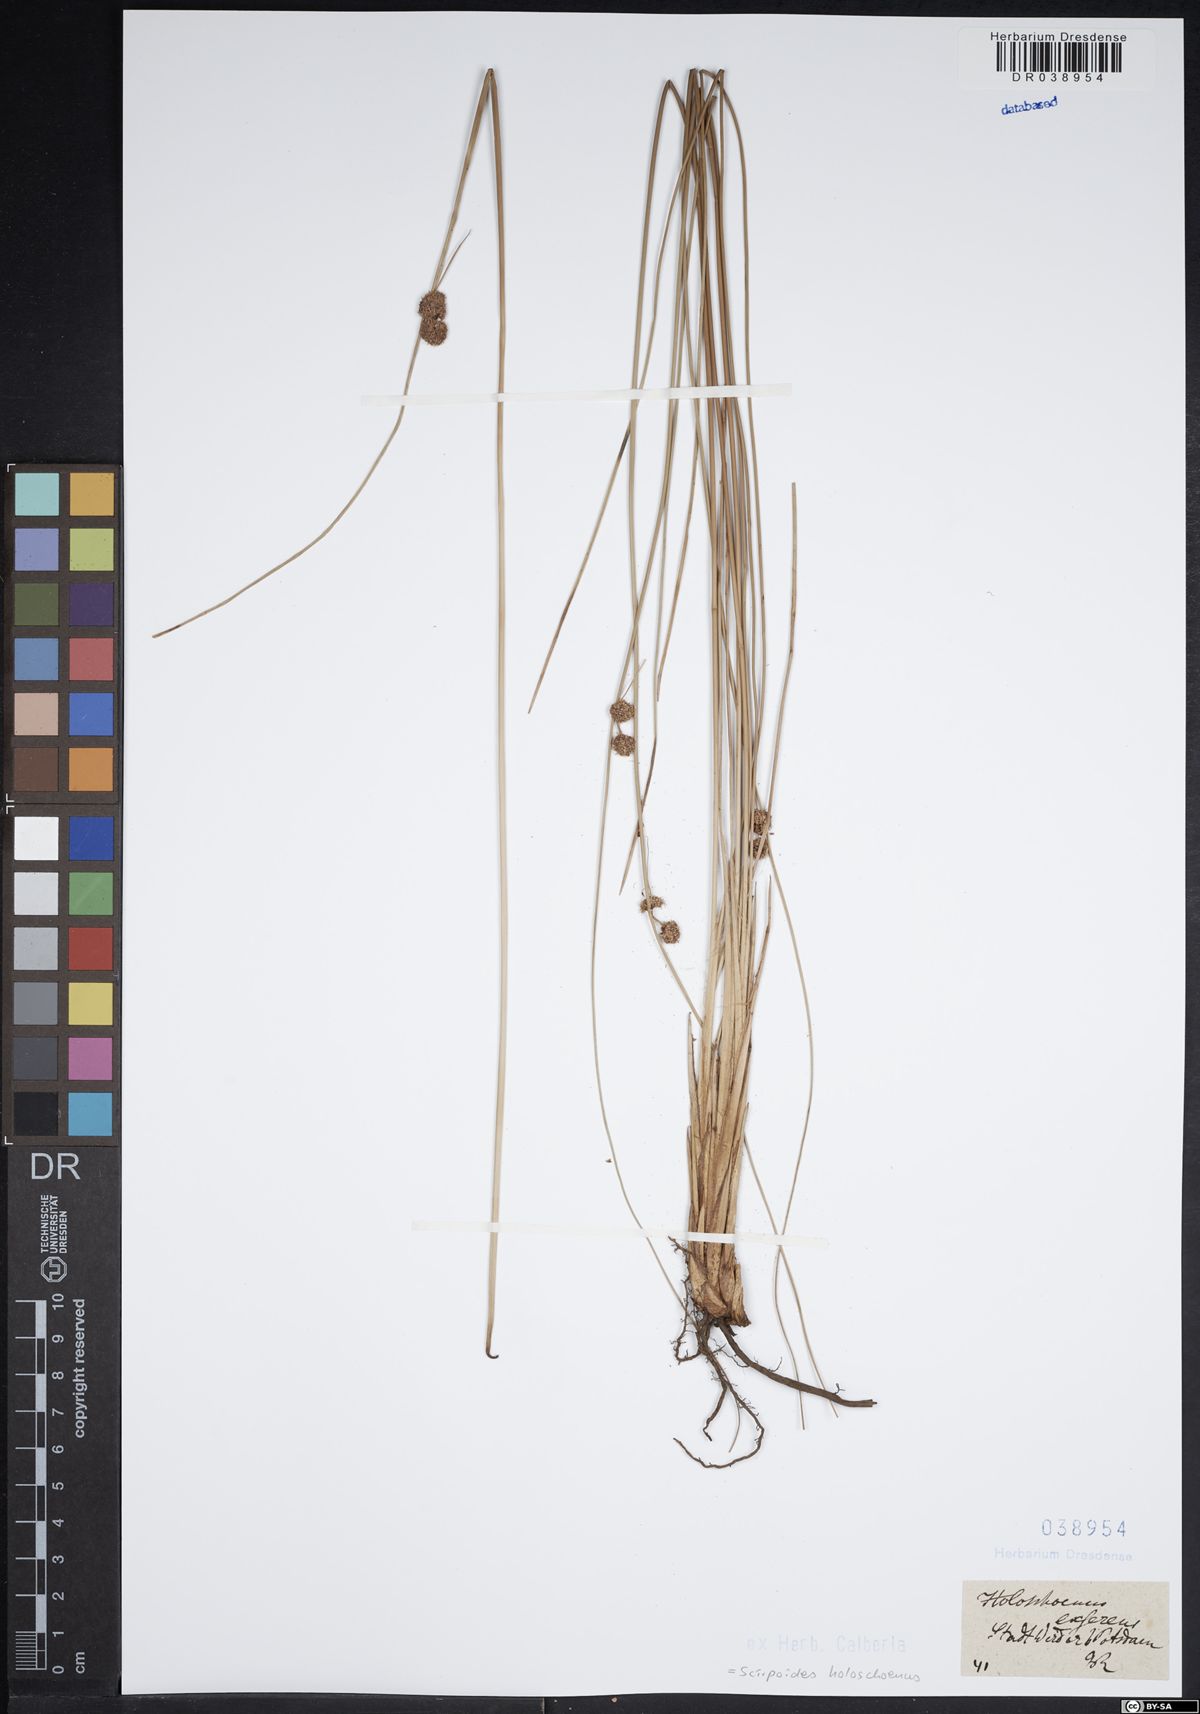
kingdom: Plantae
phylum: Tracheophyta
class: Liliopsida
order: Poales
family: Cyperaceae
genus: Scirpoides
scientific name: Scirpoides holoschoenus
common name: Round-headed club-rush
